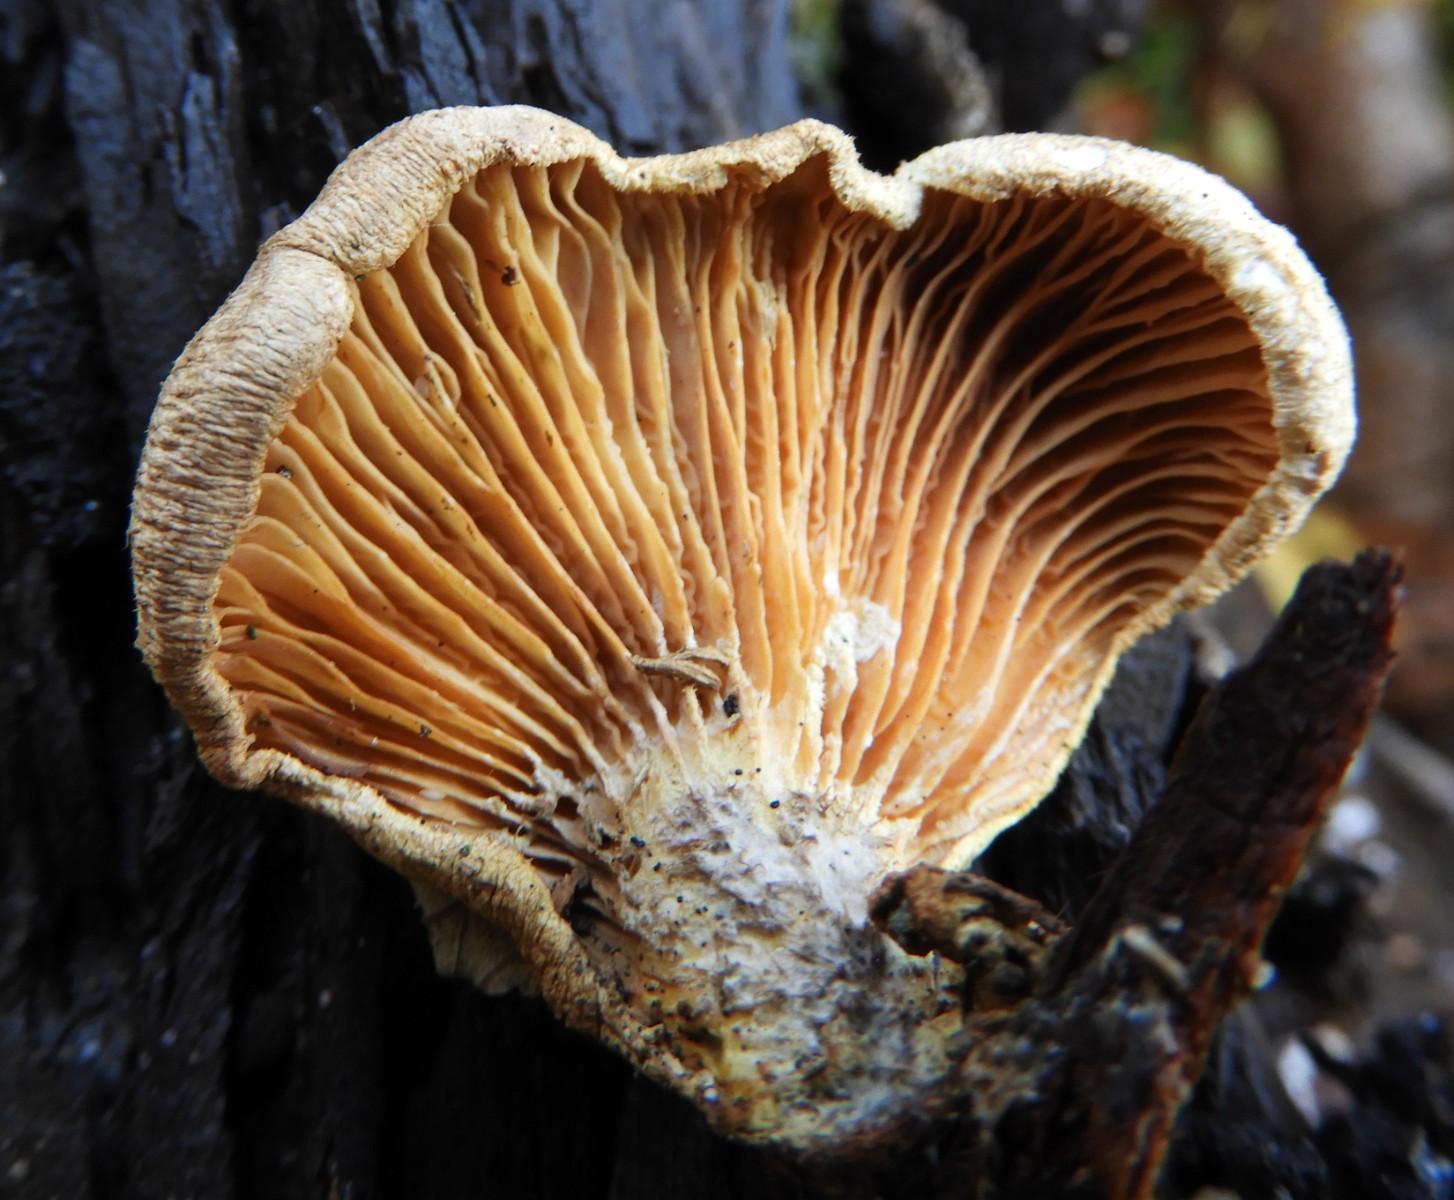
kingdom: Fungi
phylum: Basidiomycota
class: Agaricomycetes
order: Boletales
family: Tapinellaceae
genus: Tapinella
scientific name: Tapinella panuoides
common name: tømmer-viftesvamp
